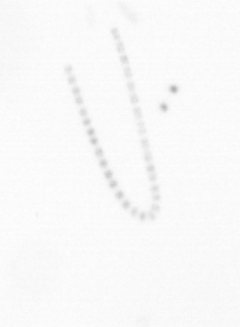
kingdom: Chromista
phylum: Ochrophyta
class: Bacillariophyceae
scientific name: Bacillariophyceae
